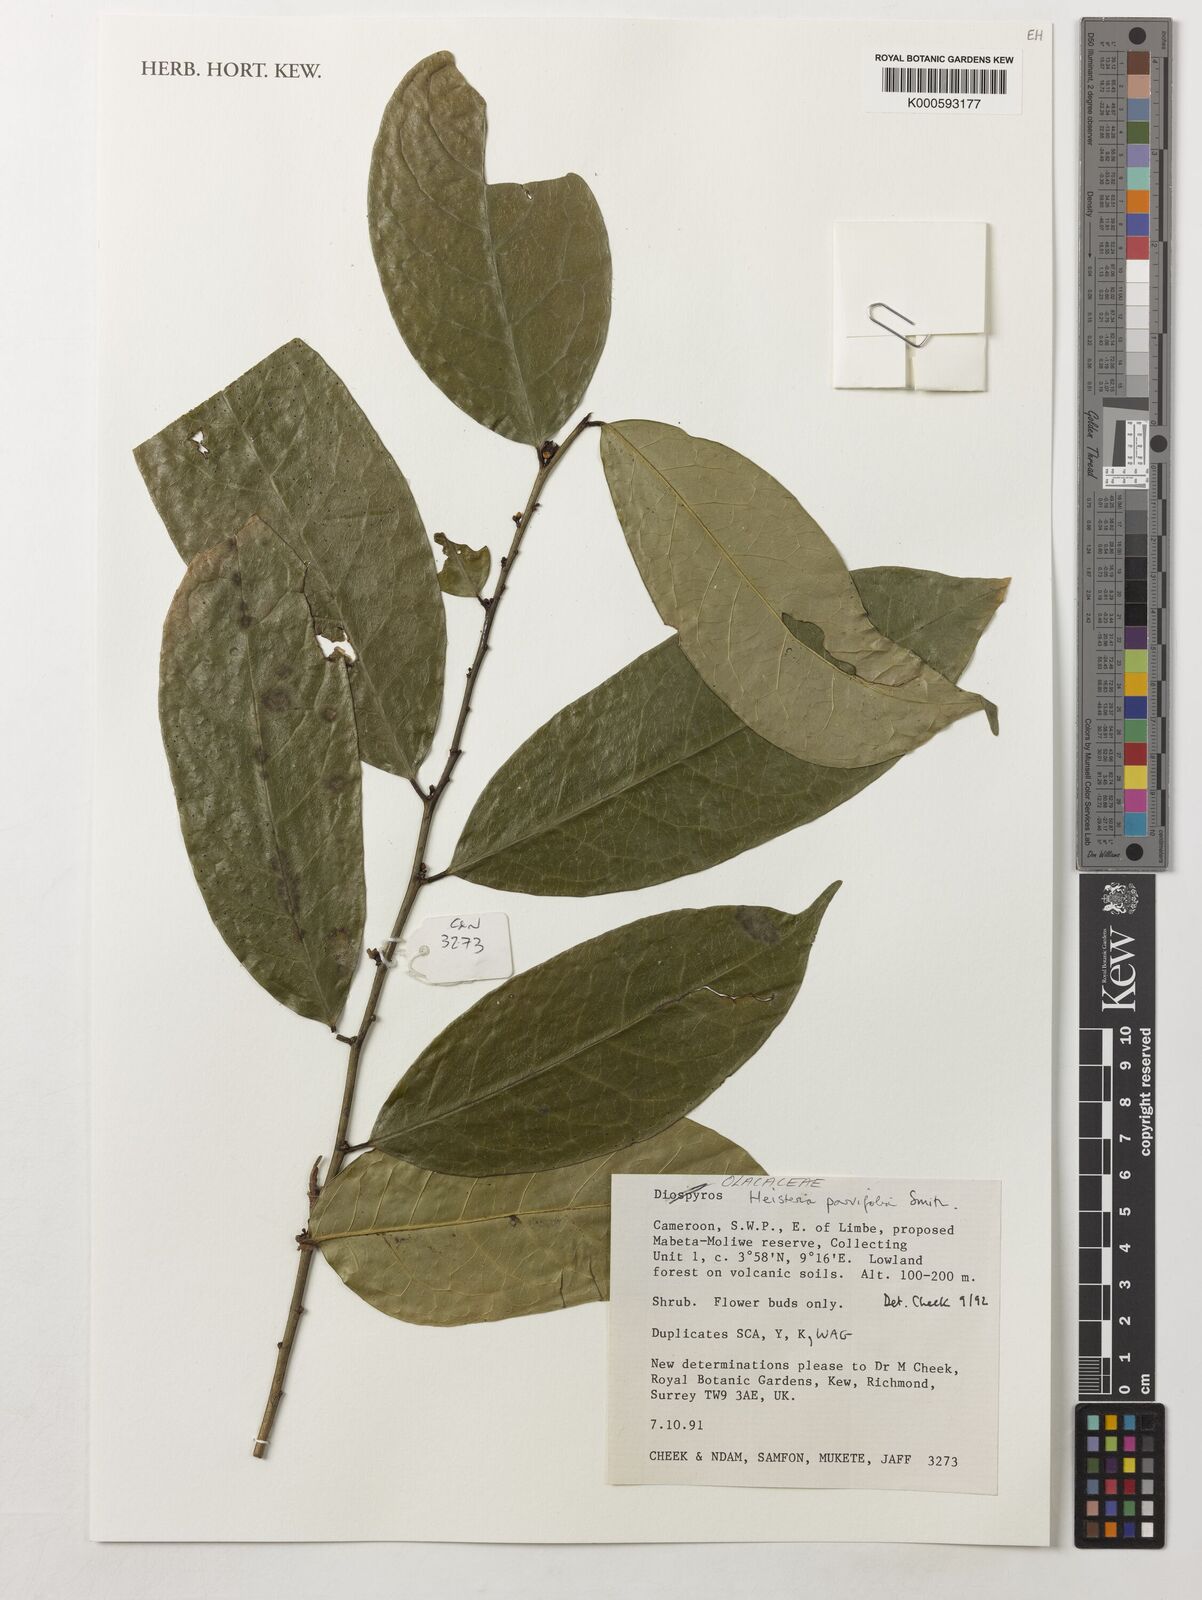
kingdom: Plantae
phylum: Tracheophyta
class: Magnoliopsida
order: Santalales
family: Erythropalaceae
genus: Heisteria
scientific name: Heisteria parvifolia
